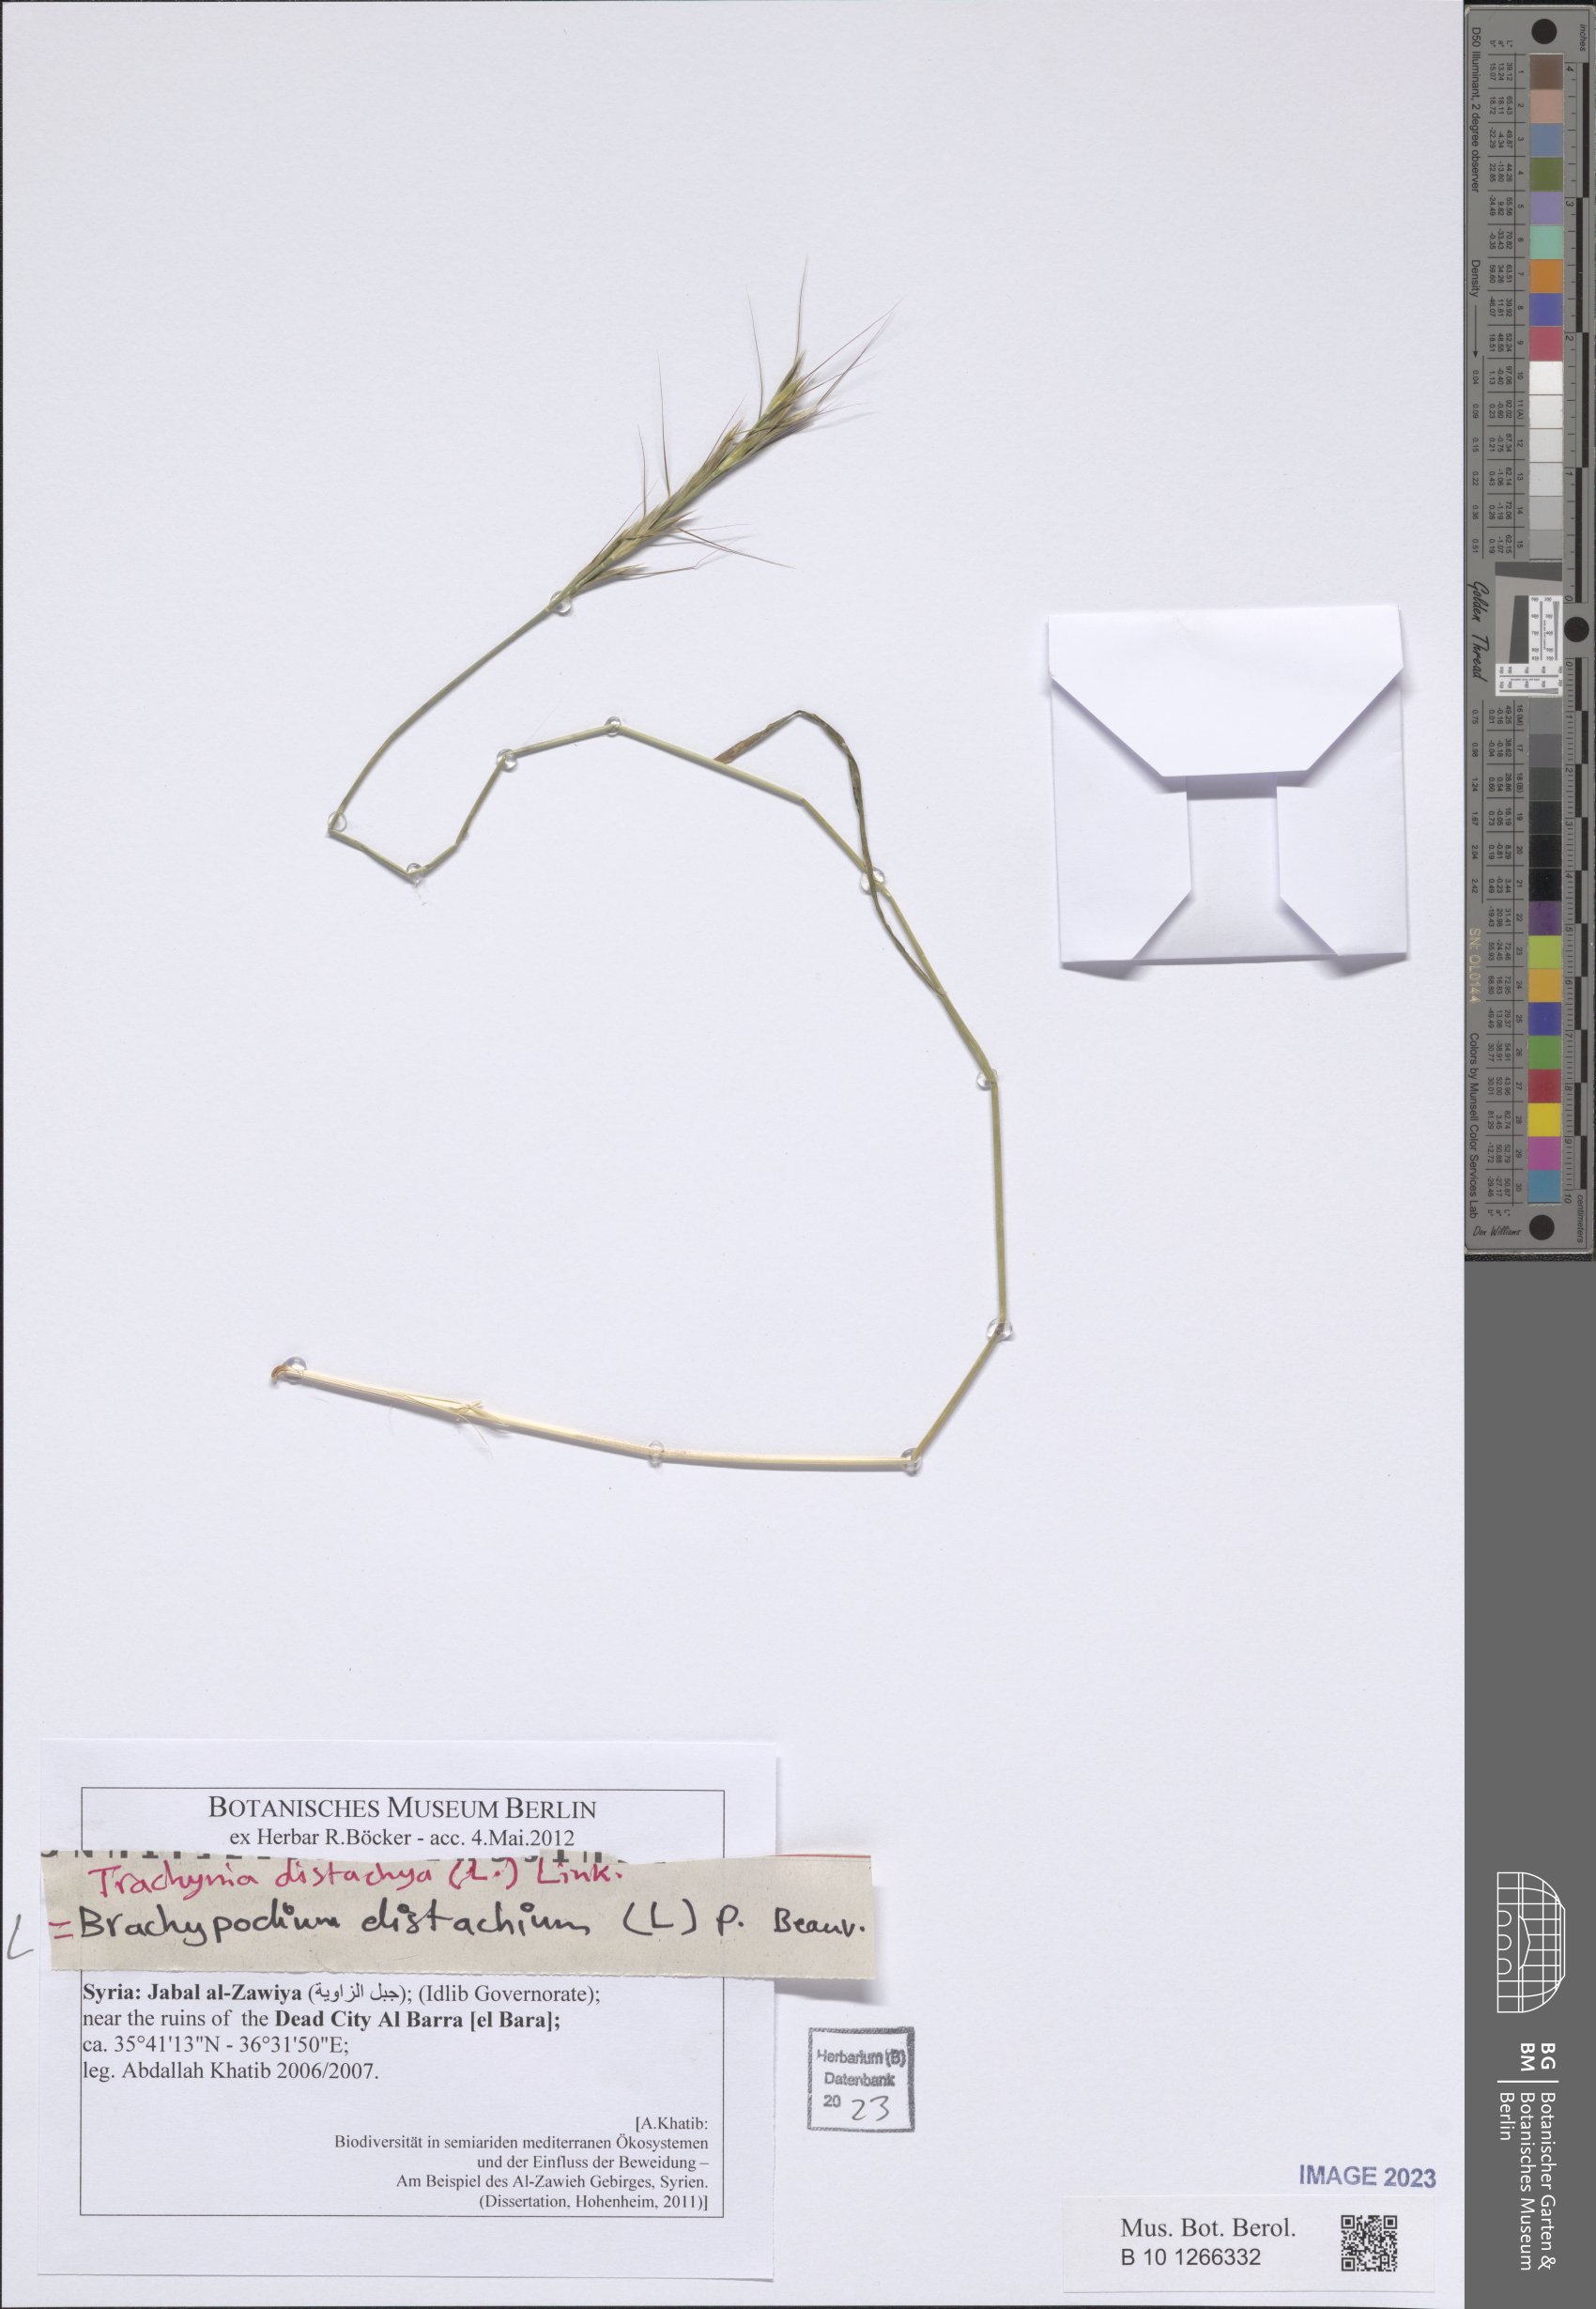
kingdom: Plantae
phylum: Tracheophyta
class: Liliopsida
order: Poales
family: Poaceae
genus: Brachypodium
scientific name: Brachypodium distachyon
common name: Stiff brome
